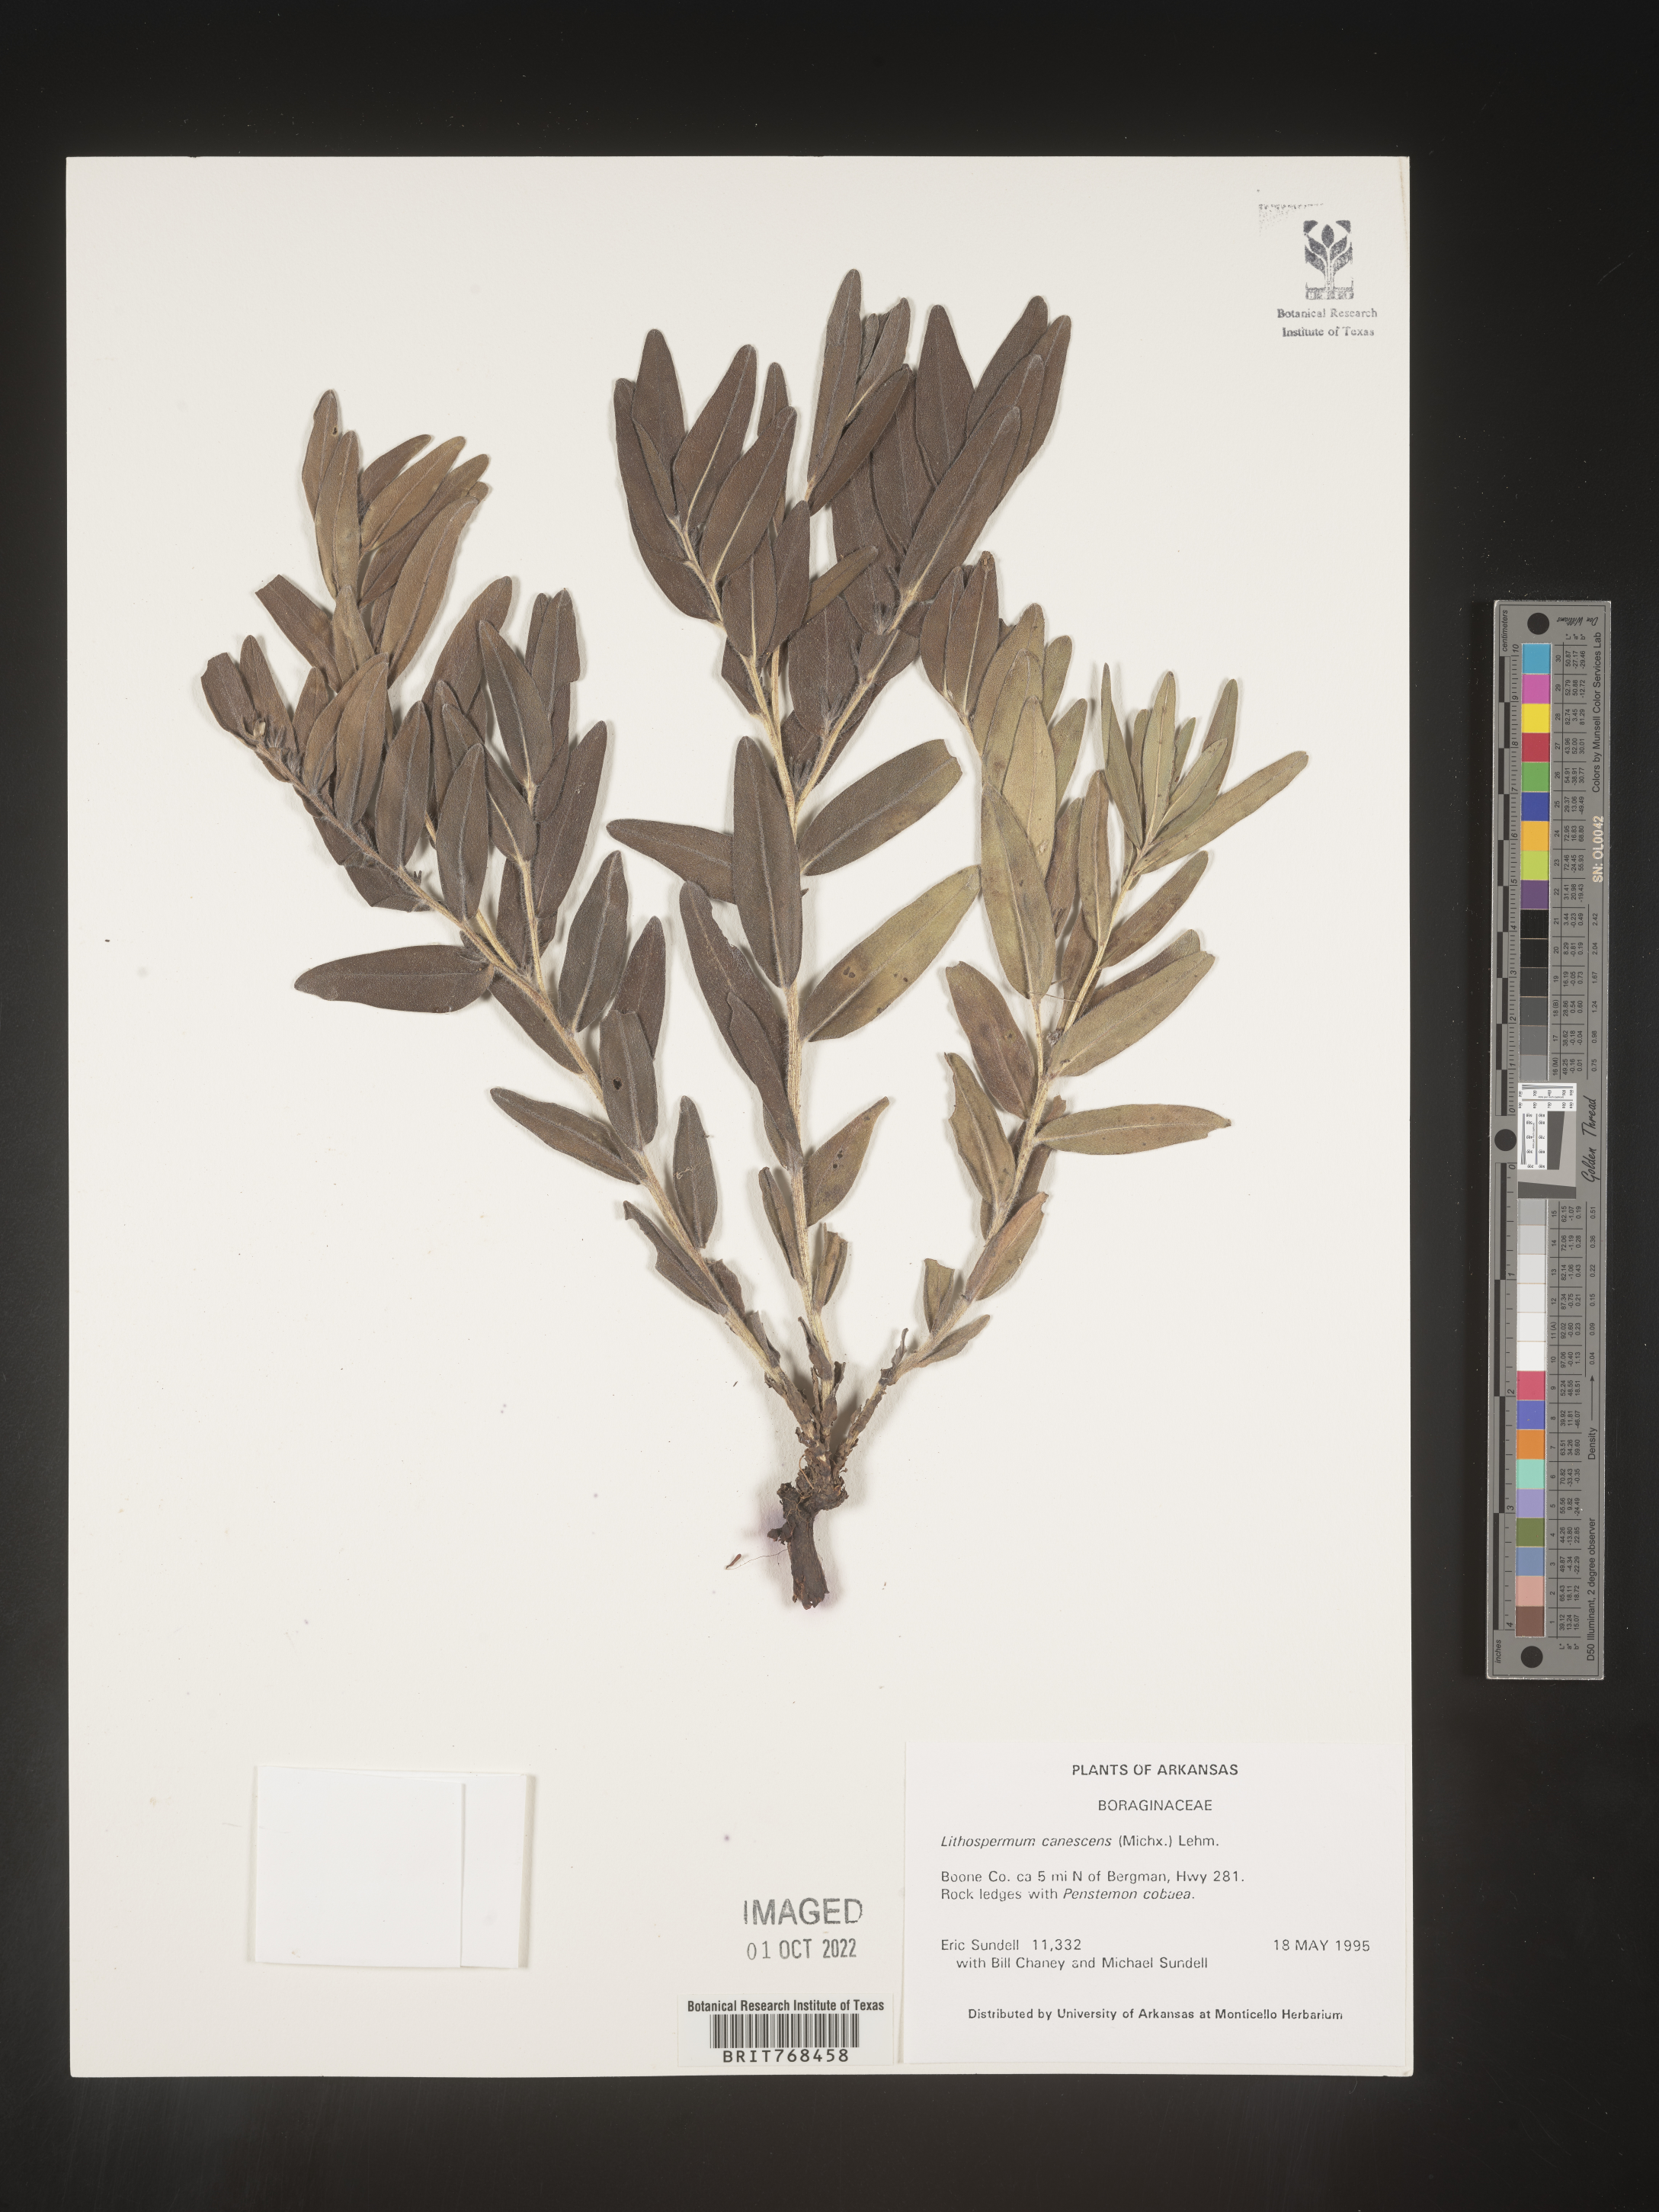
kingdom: Plantae
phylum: Tracheophyta
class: Magnoliopsida
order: Boraginales
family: Boraginaceae
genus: Lithospermum
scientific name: Lithospermum canescens
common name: Hoary puccoon
